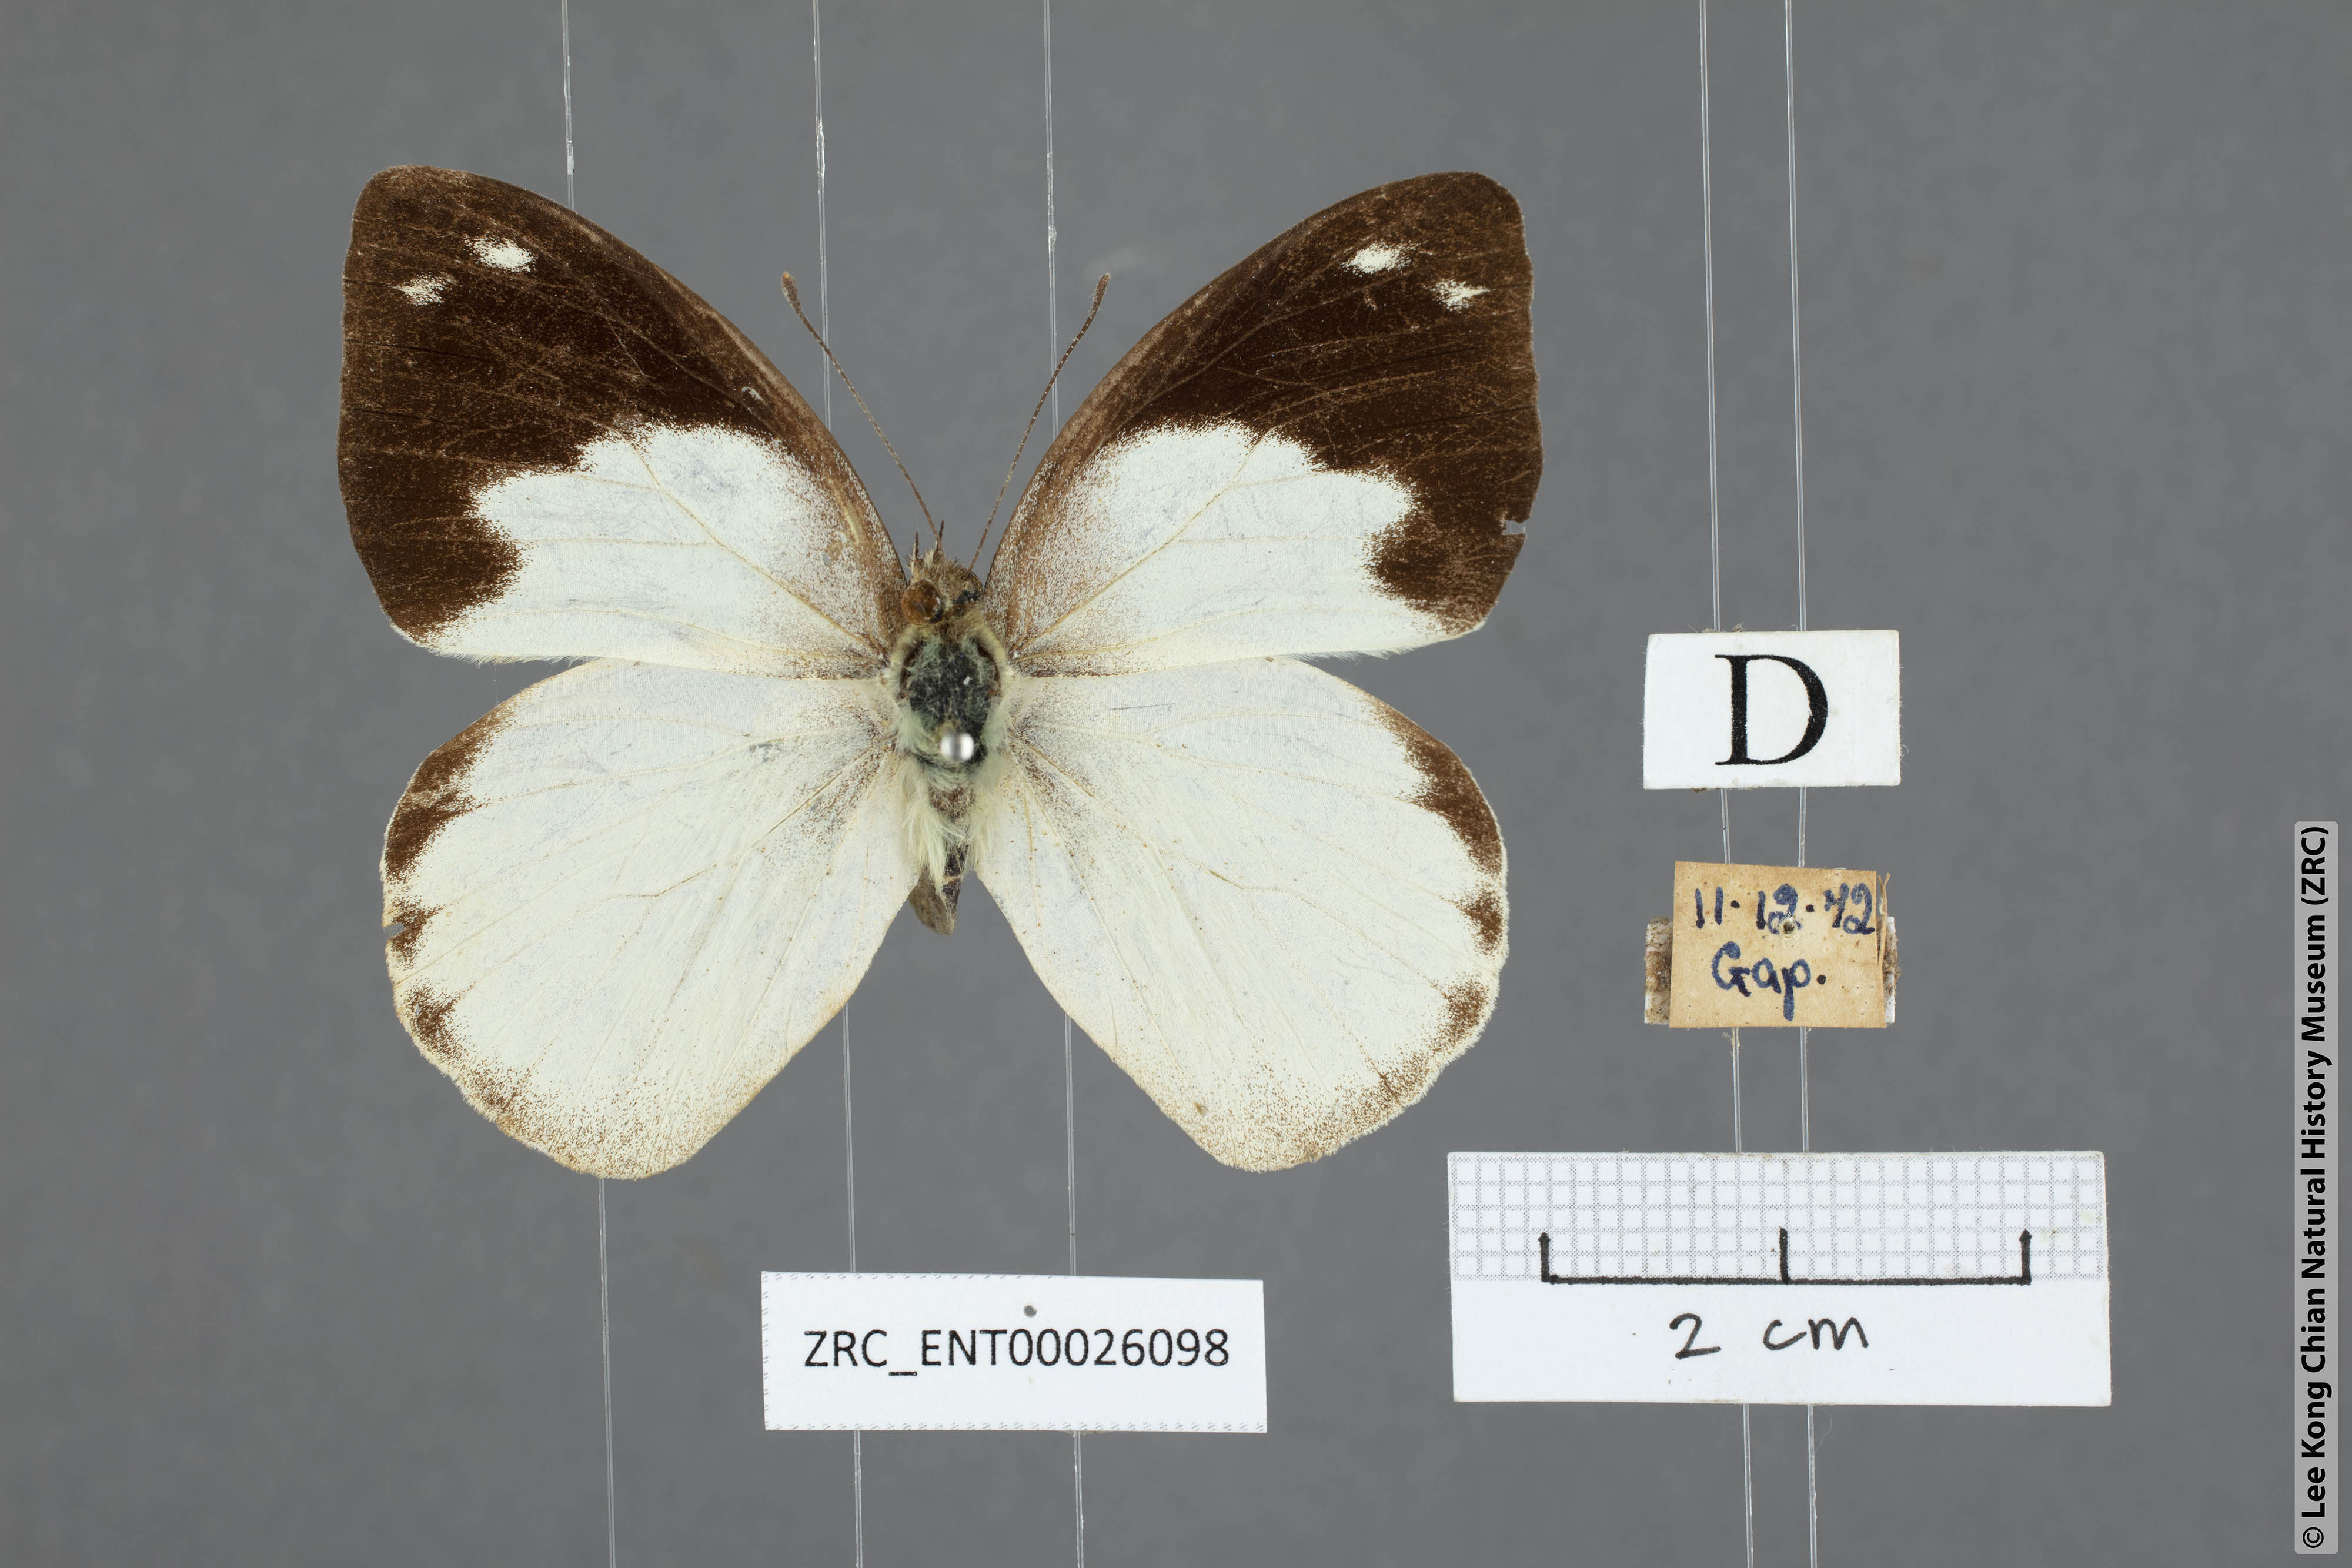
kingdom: Animalia
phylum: Arthropoda
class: Insecta
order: Lepidoptera
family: Pieridae
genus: Appias
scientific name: Appias indra
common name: Plain puffin
